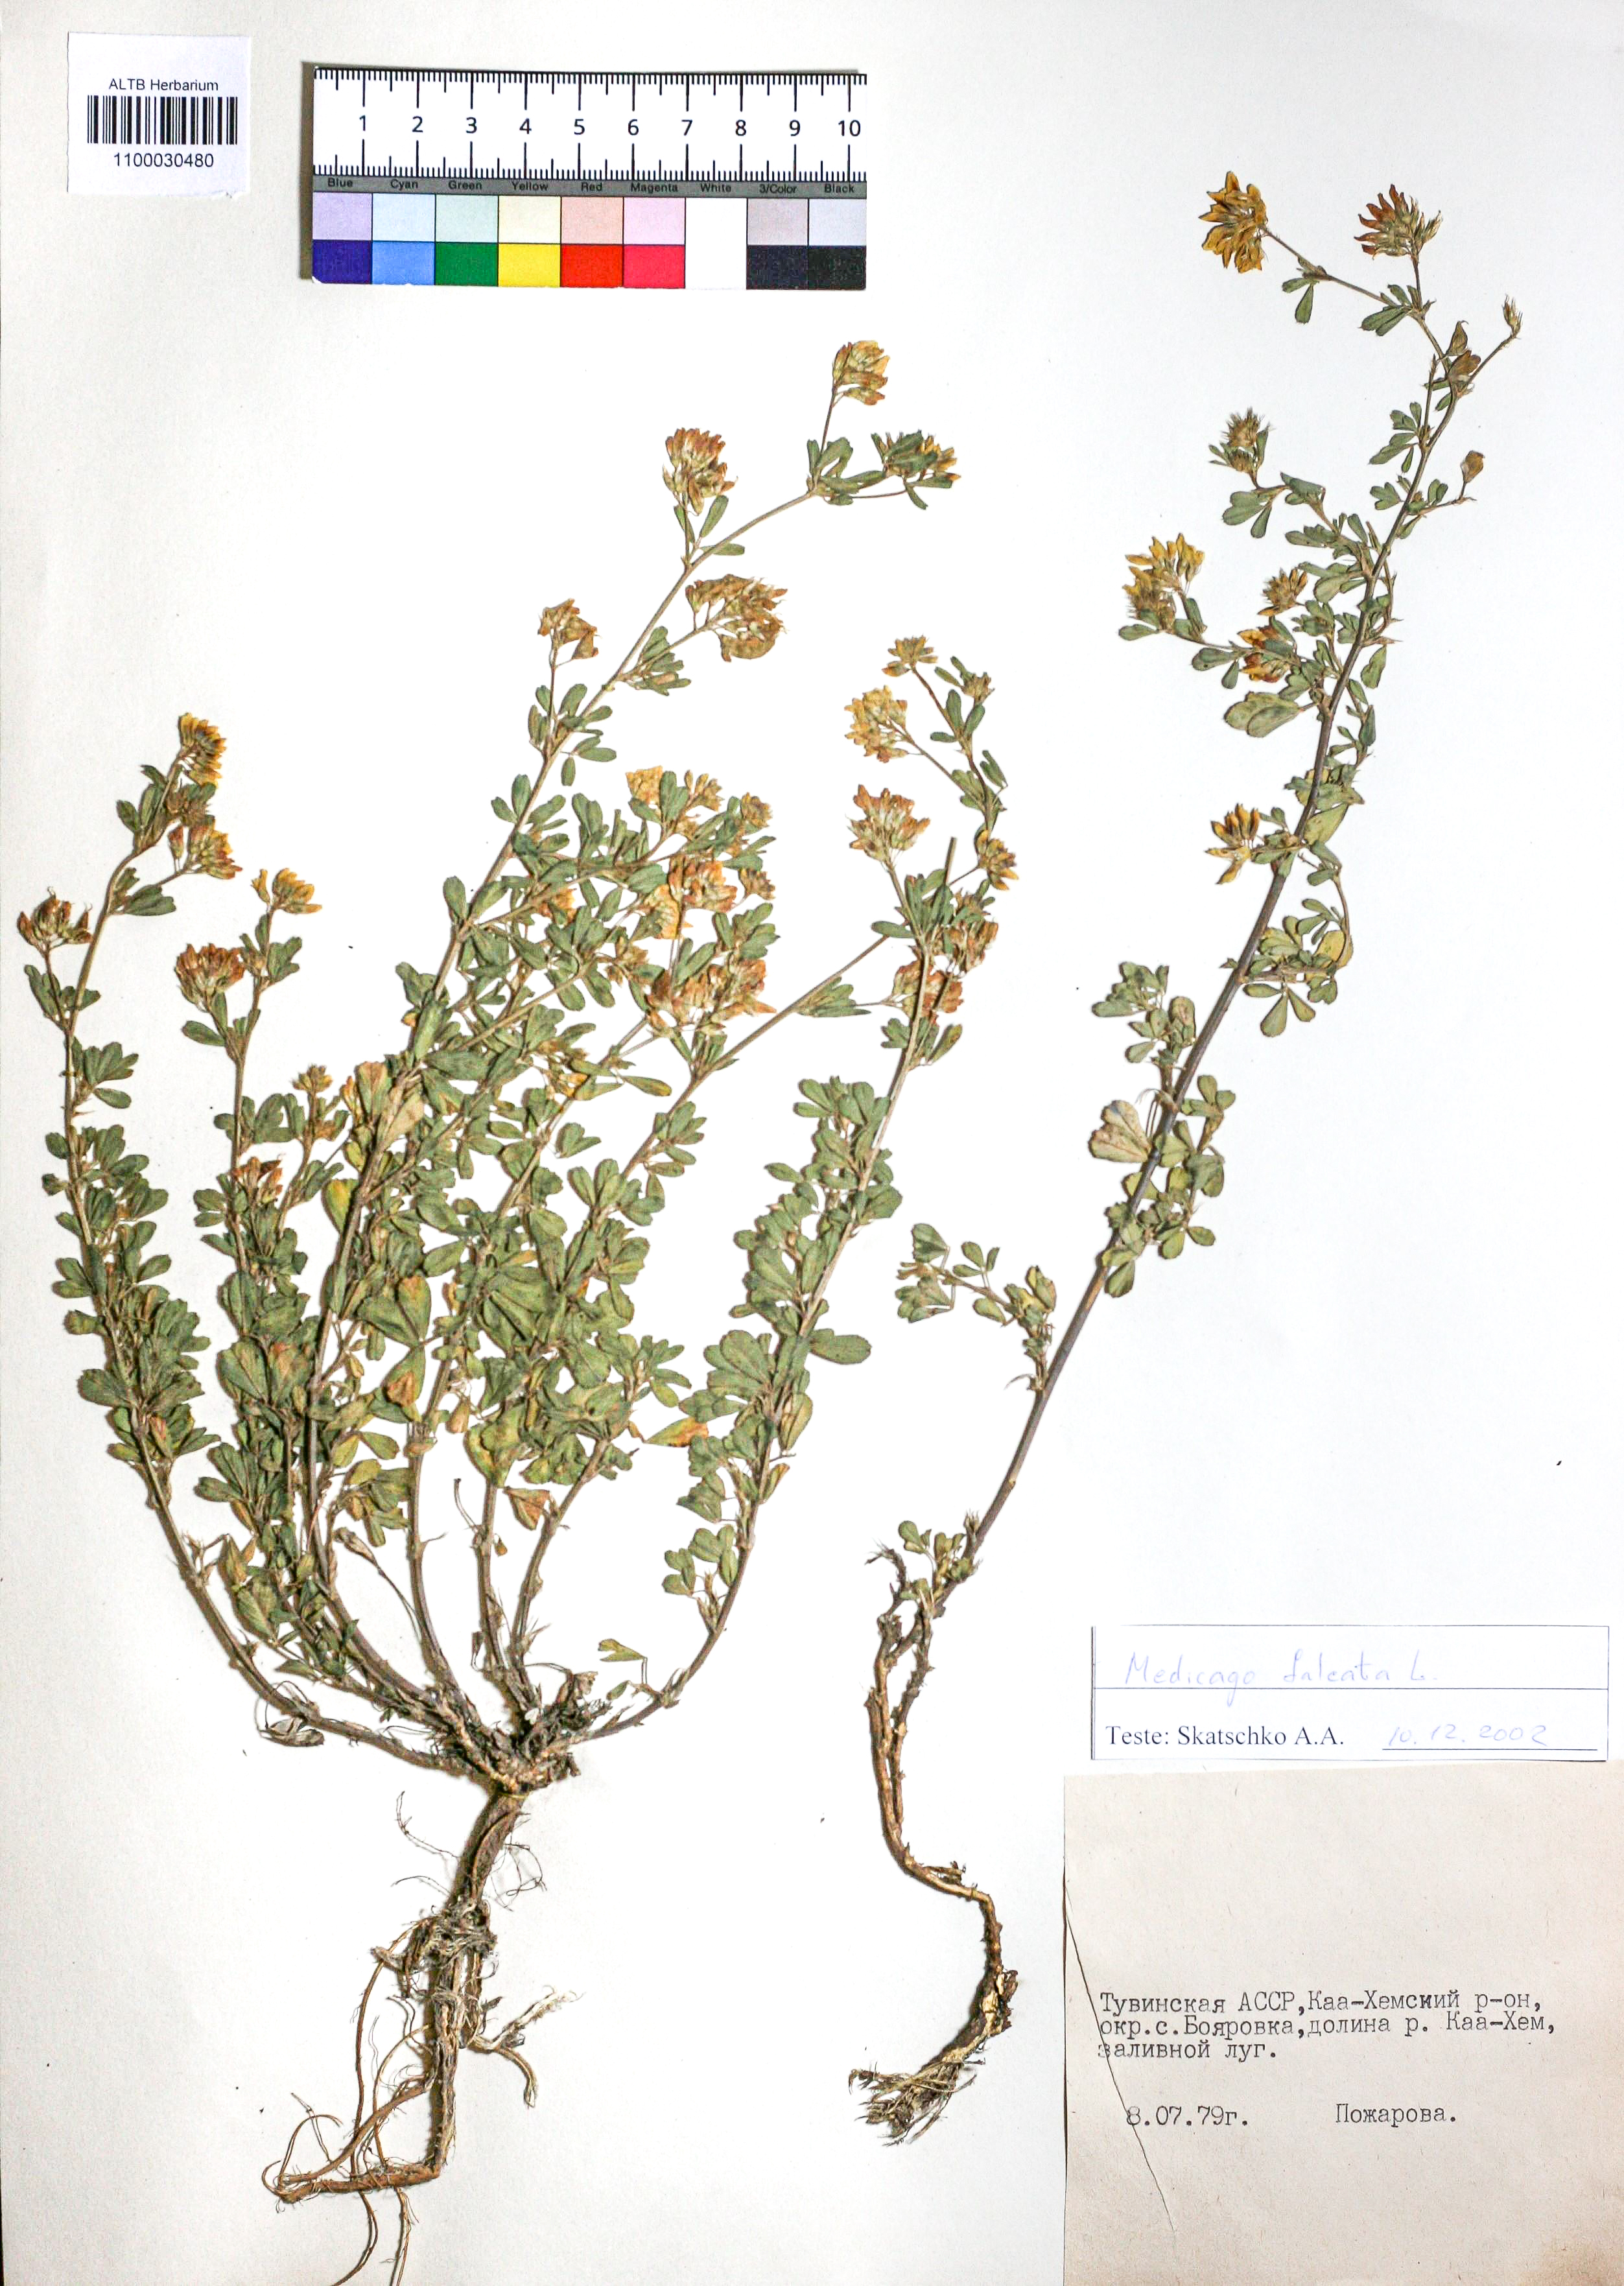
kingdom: Plantae
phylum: Tracheophyta
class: Magnoliopsida
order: Fabales
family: Fabaceae
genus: Medicago
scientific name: Medicago falcata
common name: Sickle medick
